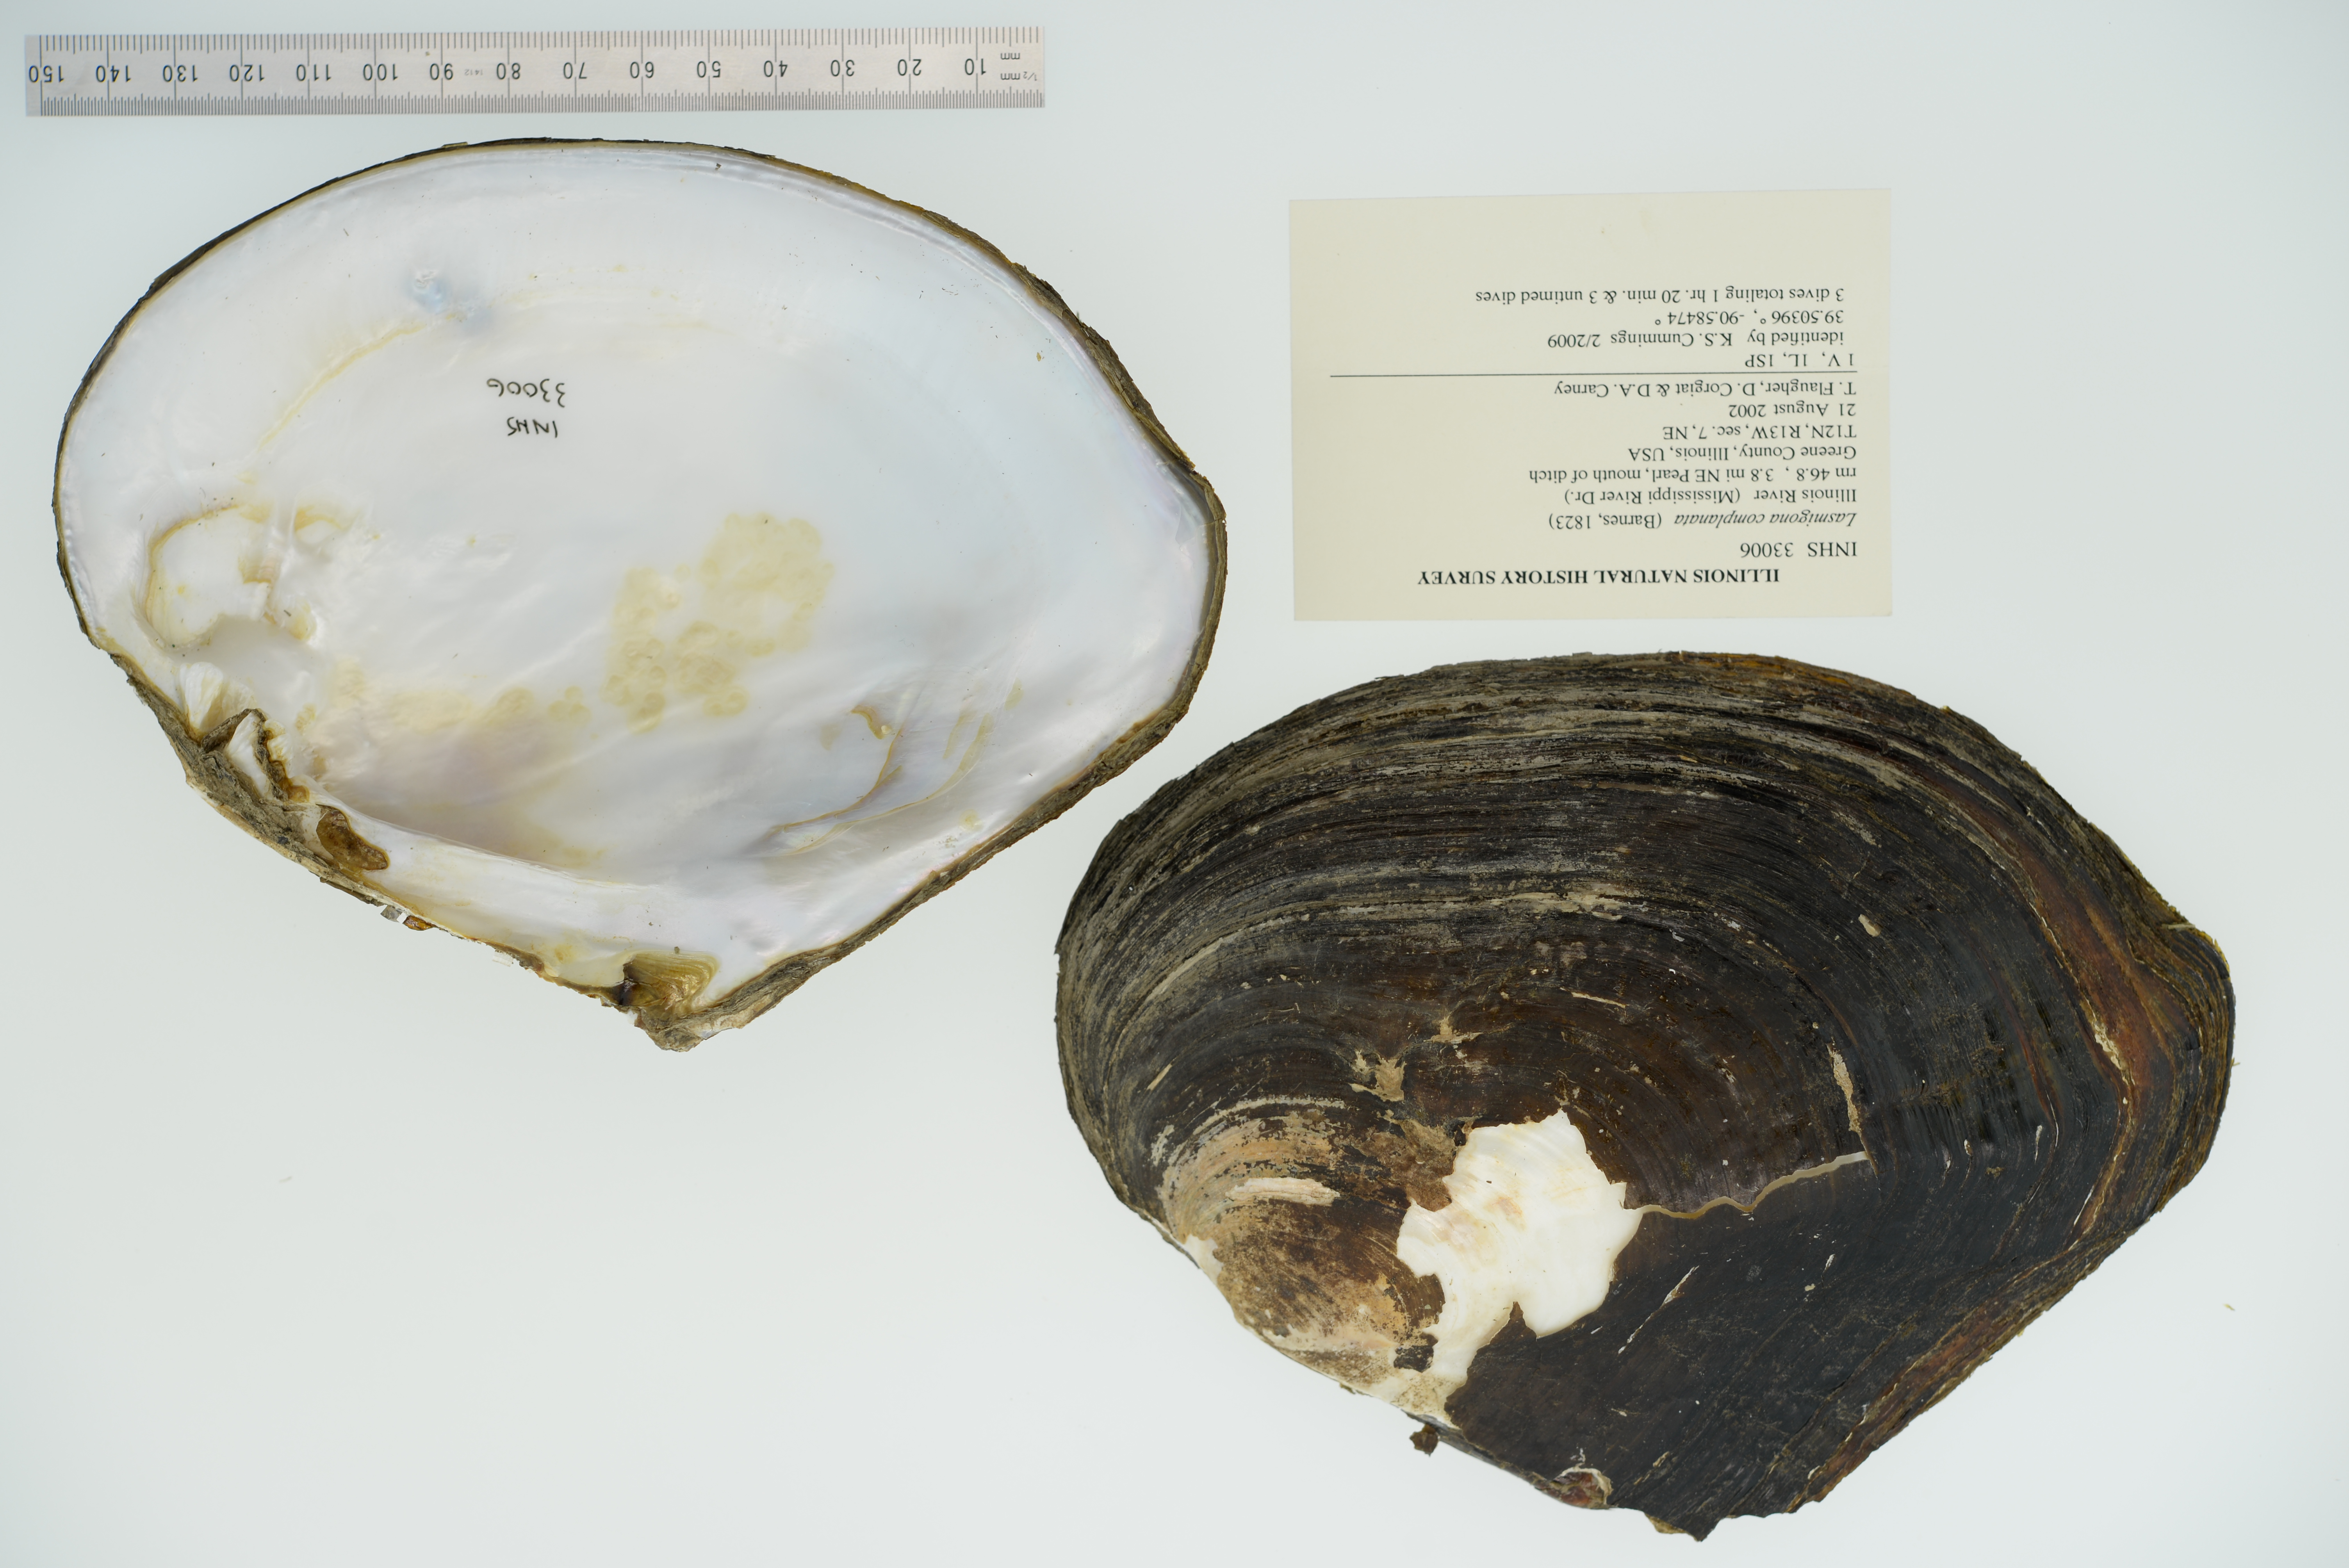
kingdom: Animalia
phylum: Mollusca
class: Bivalvia
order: Unionida
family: Unionidae
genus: Lasmigona
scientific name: Lasmigona complanata
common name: White heelsplitter
